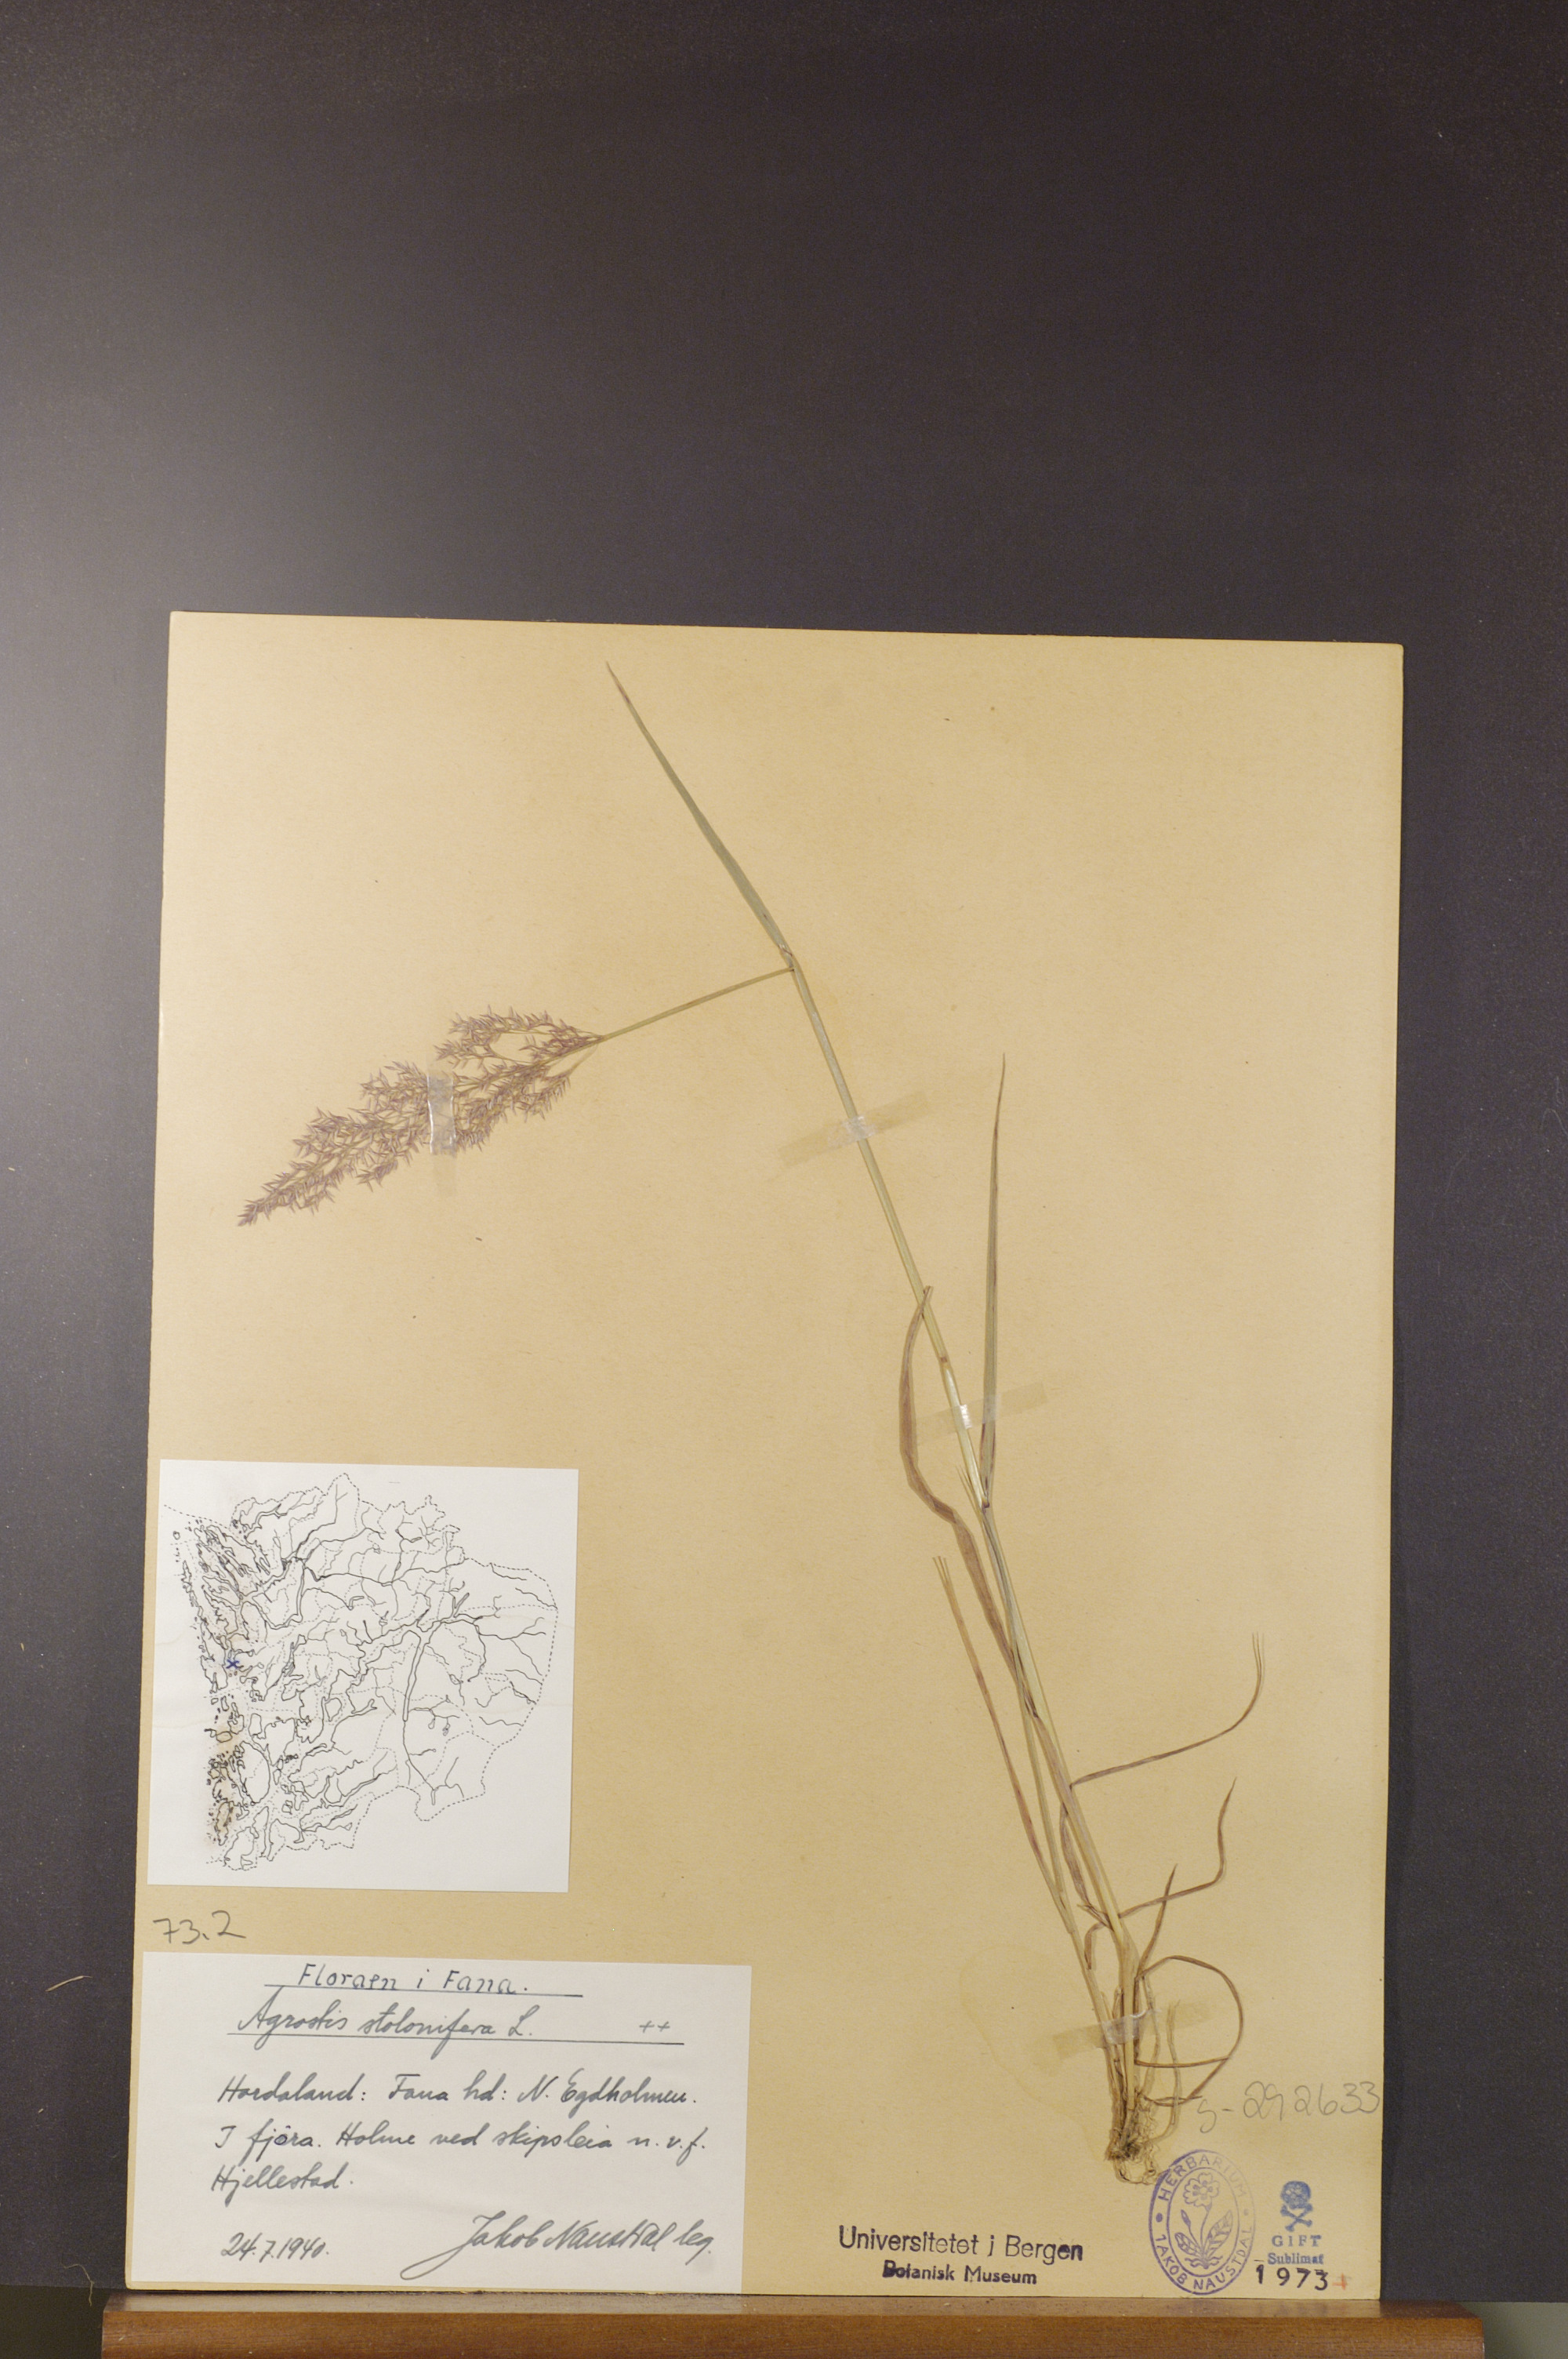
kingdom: Plantae
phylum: Tracheophyta
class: Liliopsida
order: Poales
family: Poaceae
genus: Agrostis
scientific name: Agrostis stolonifera
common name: Creeping bentgrass
